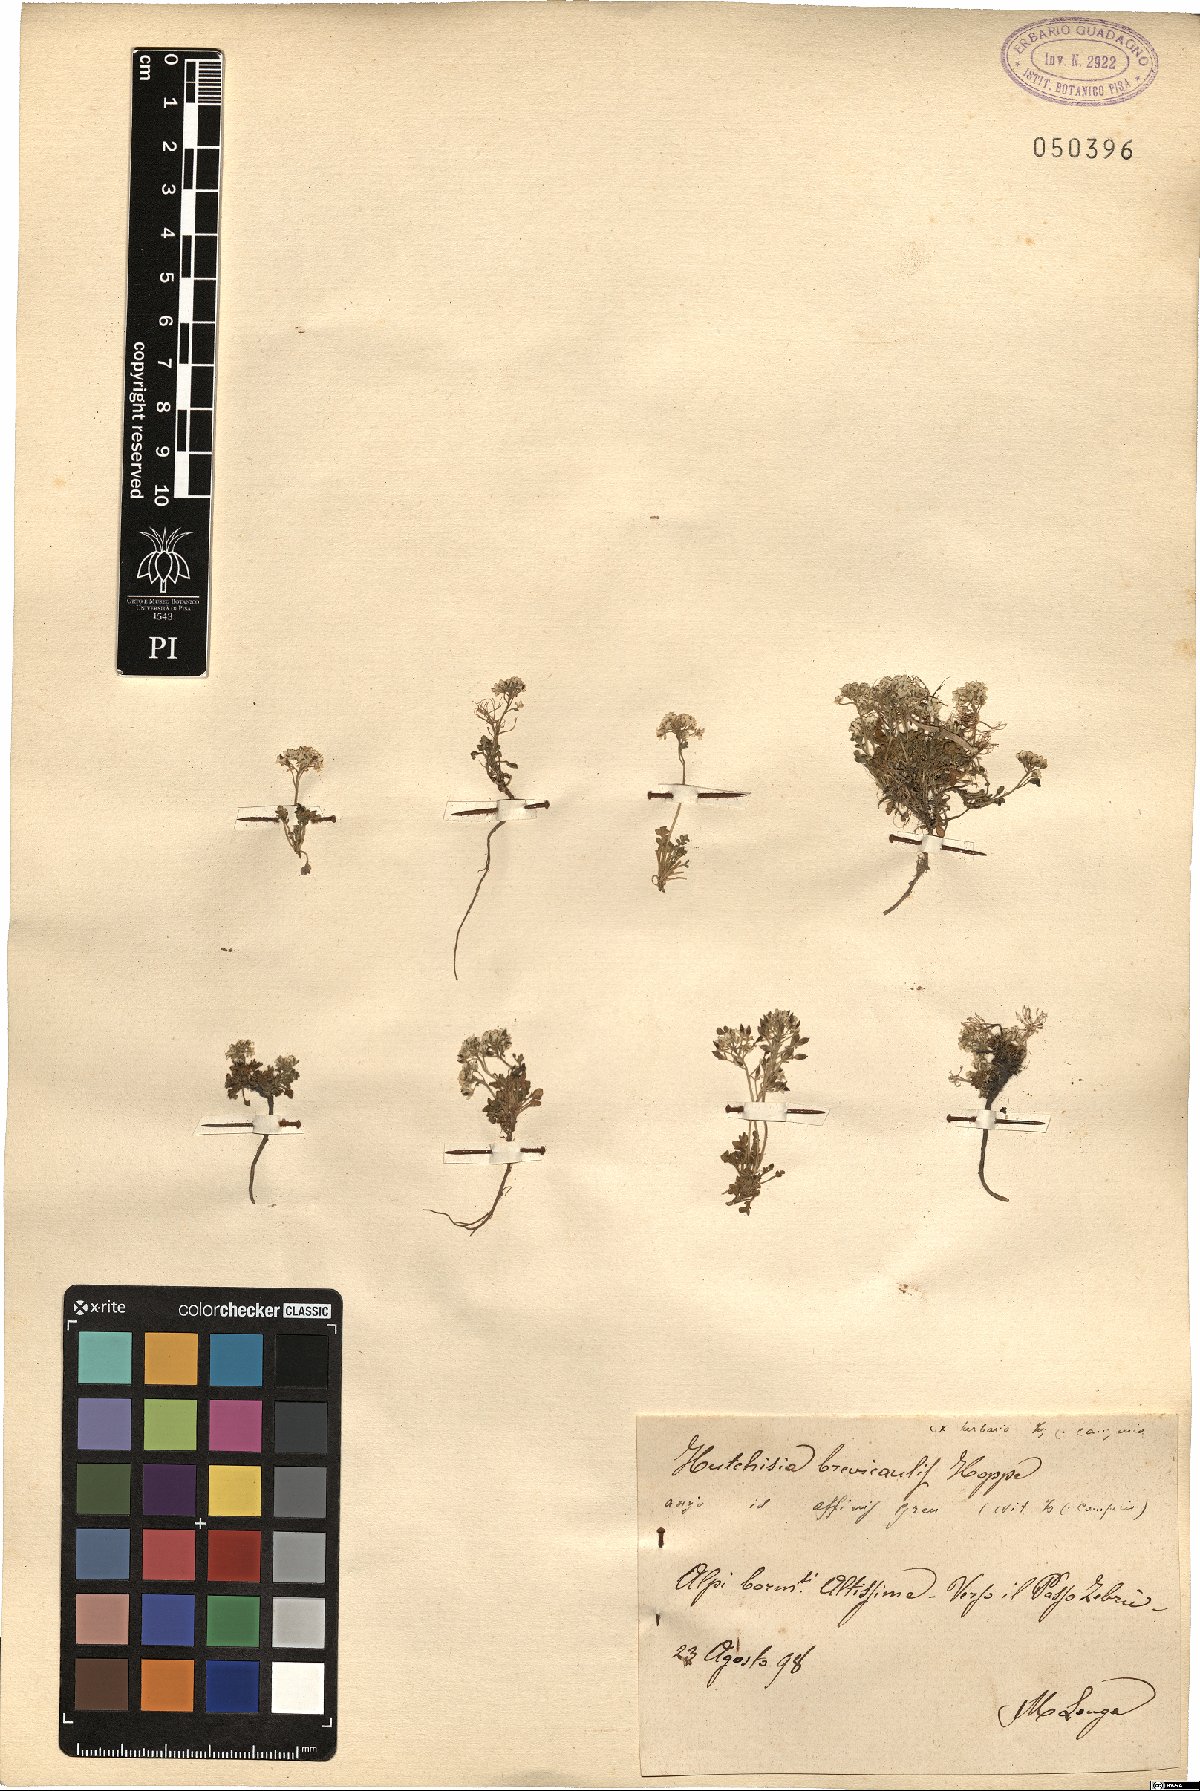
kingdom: Plantae
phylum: Tracheophyta
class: Magnoliopsida
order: Brassicales
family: Brassicaceae
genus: Hornungia
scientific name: Hornungia alpina
